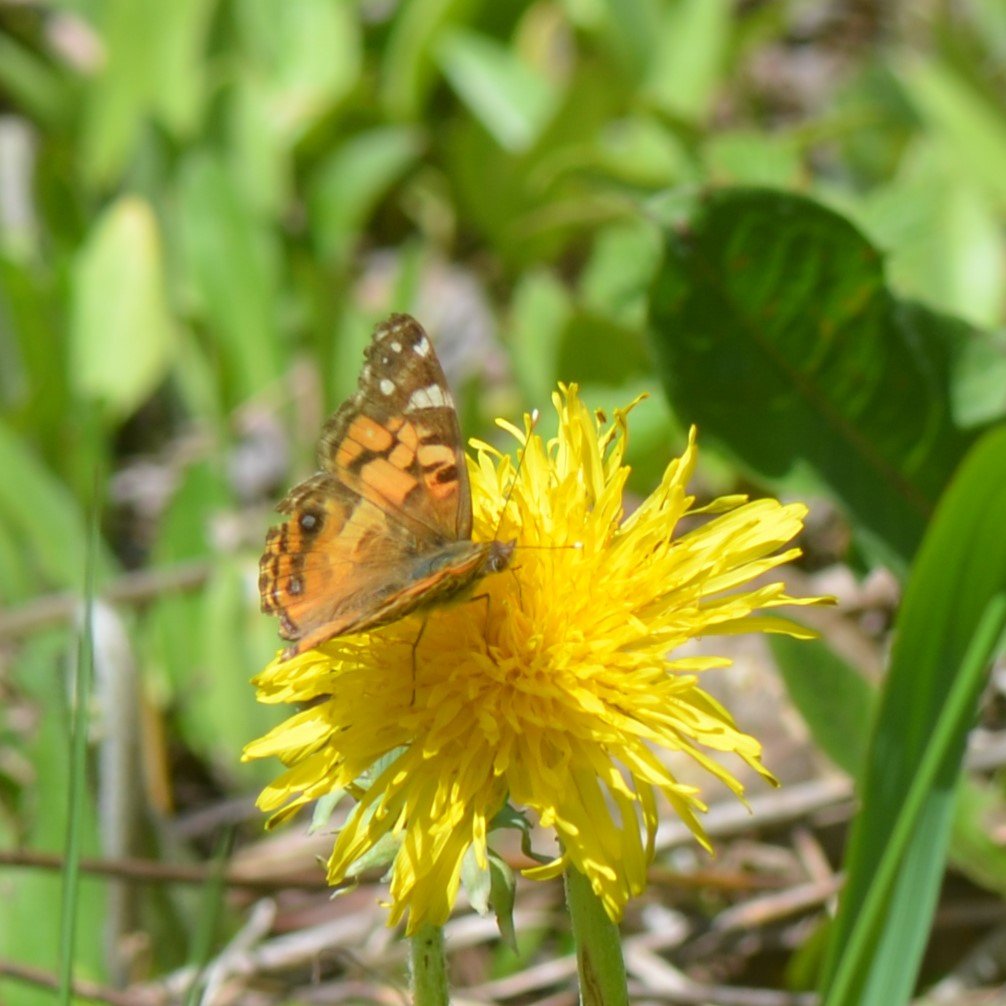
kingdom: Animalia
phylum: Arthropoda
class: Insecta
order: Lepidoptera
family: Nymphalidae
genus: Vanessa
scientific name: Vanessa virginiensis
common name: American Lady
